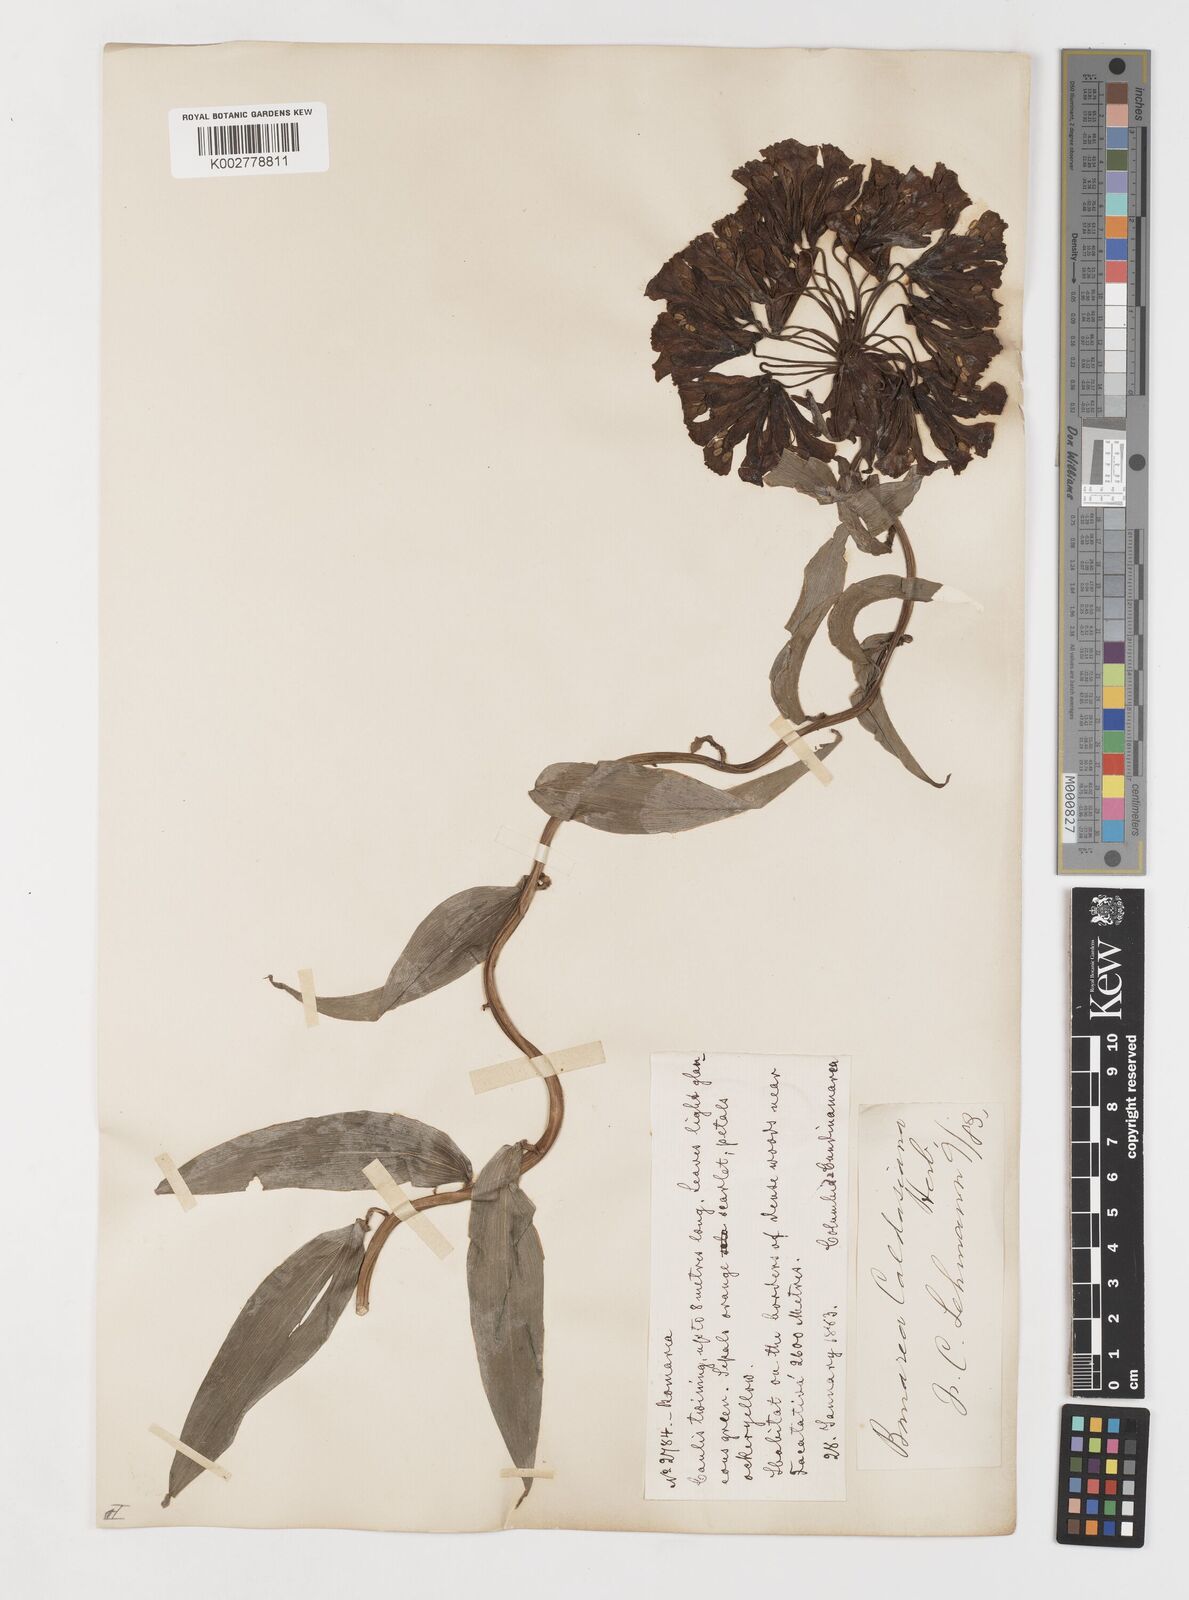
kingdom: Plantae
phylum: Tracheophyta
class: Liliopsida
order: Liliales
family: Alstroemeriaceae
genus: Bomarea
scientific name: Bomarea hirsuta
